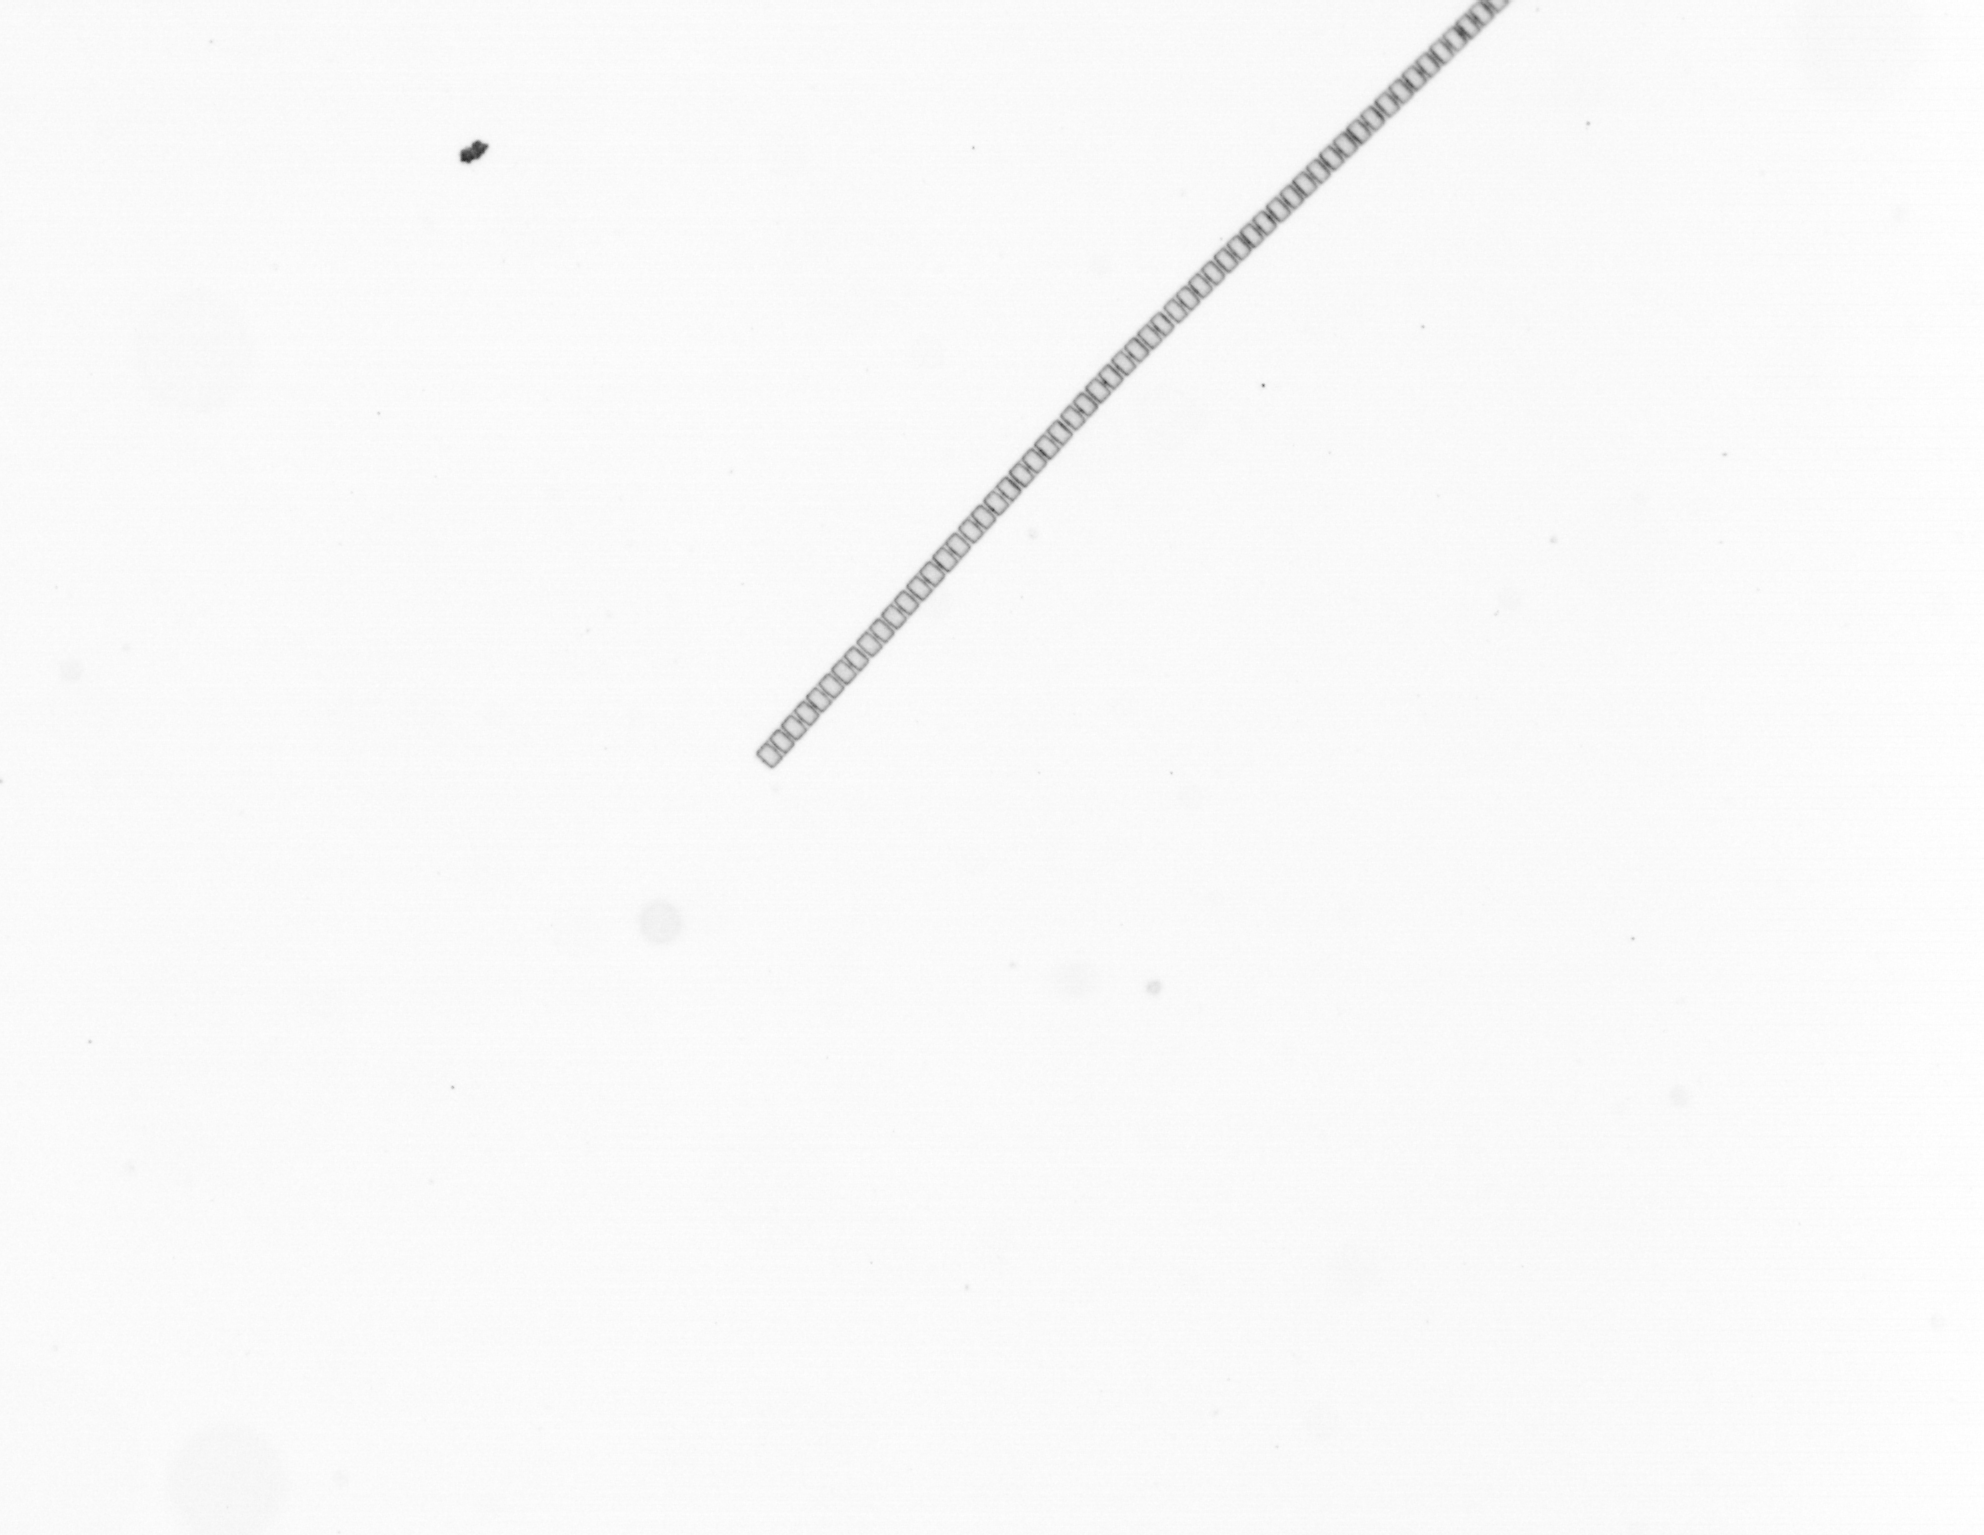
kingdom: Chromista
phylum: Ochrophyta
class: Bacillariophyceae
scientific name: Bacillariophyceae
